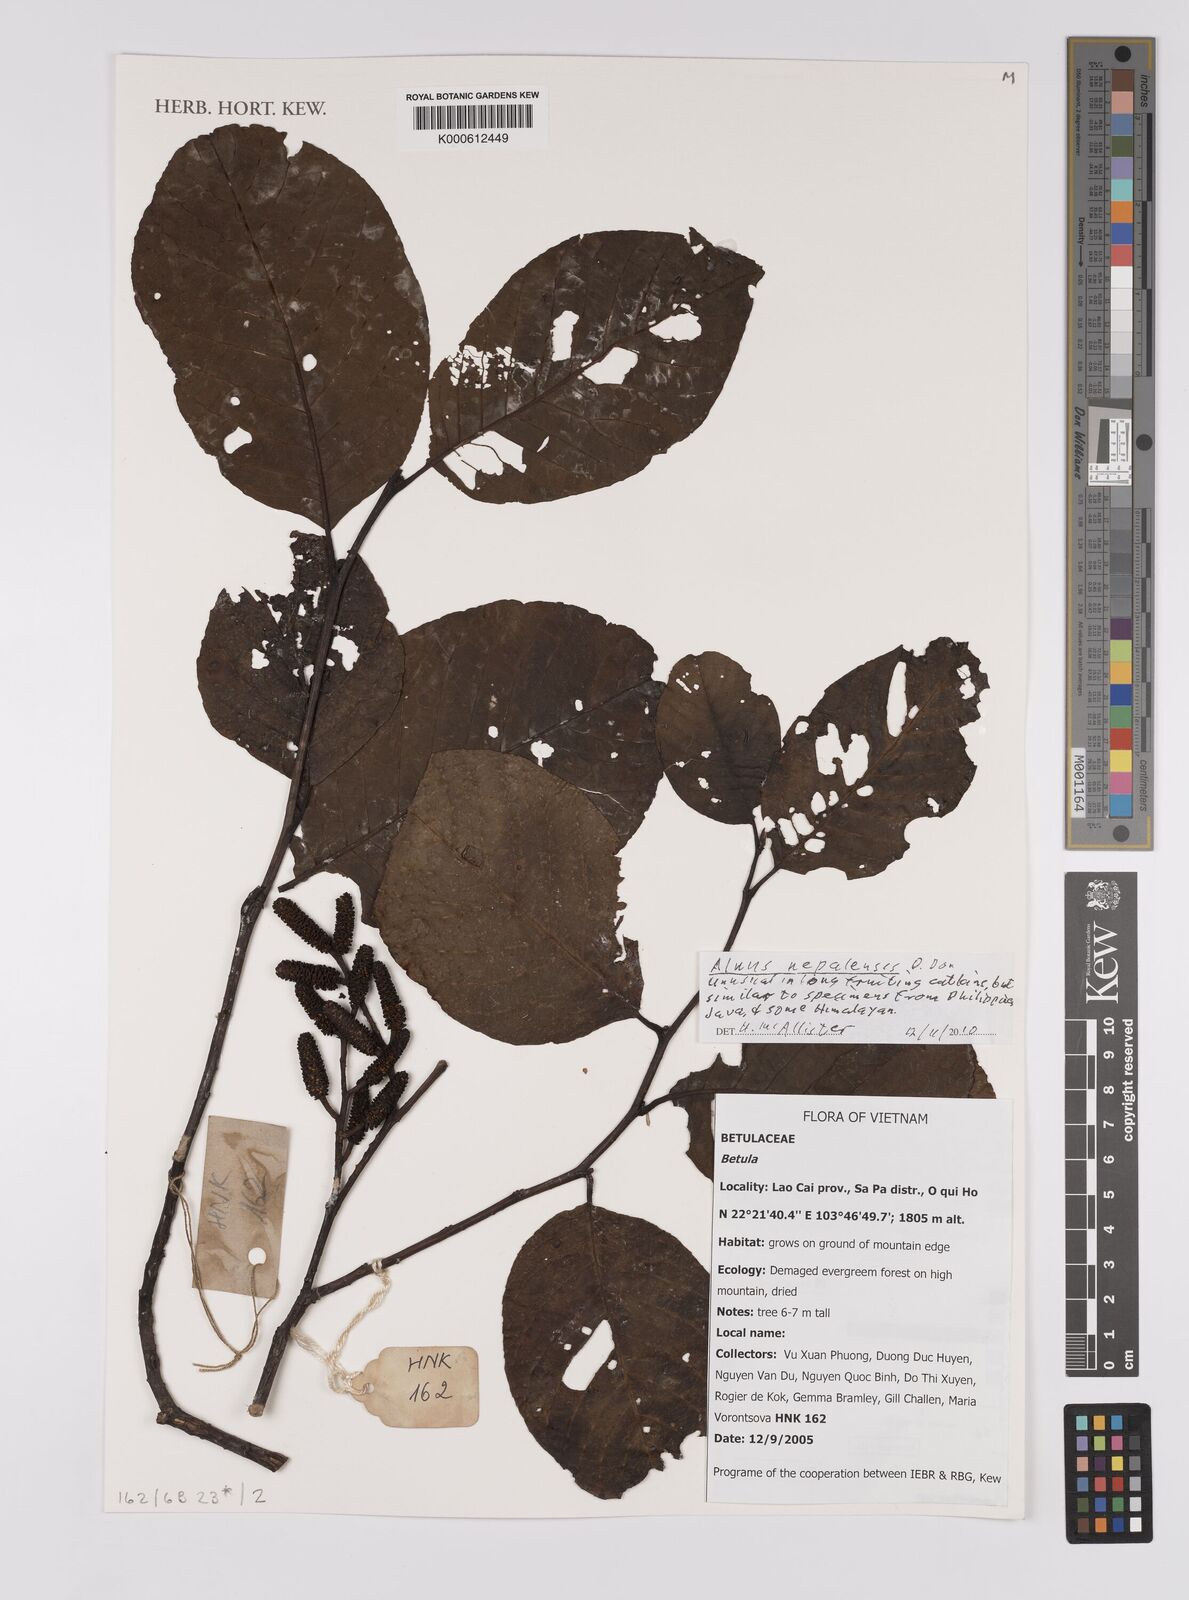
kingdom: Plantae
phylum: Tracheophyta
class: Magnoliopsida
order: Fagales
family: Betulaceae
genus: Betula
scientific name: Betula
